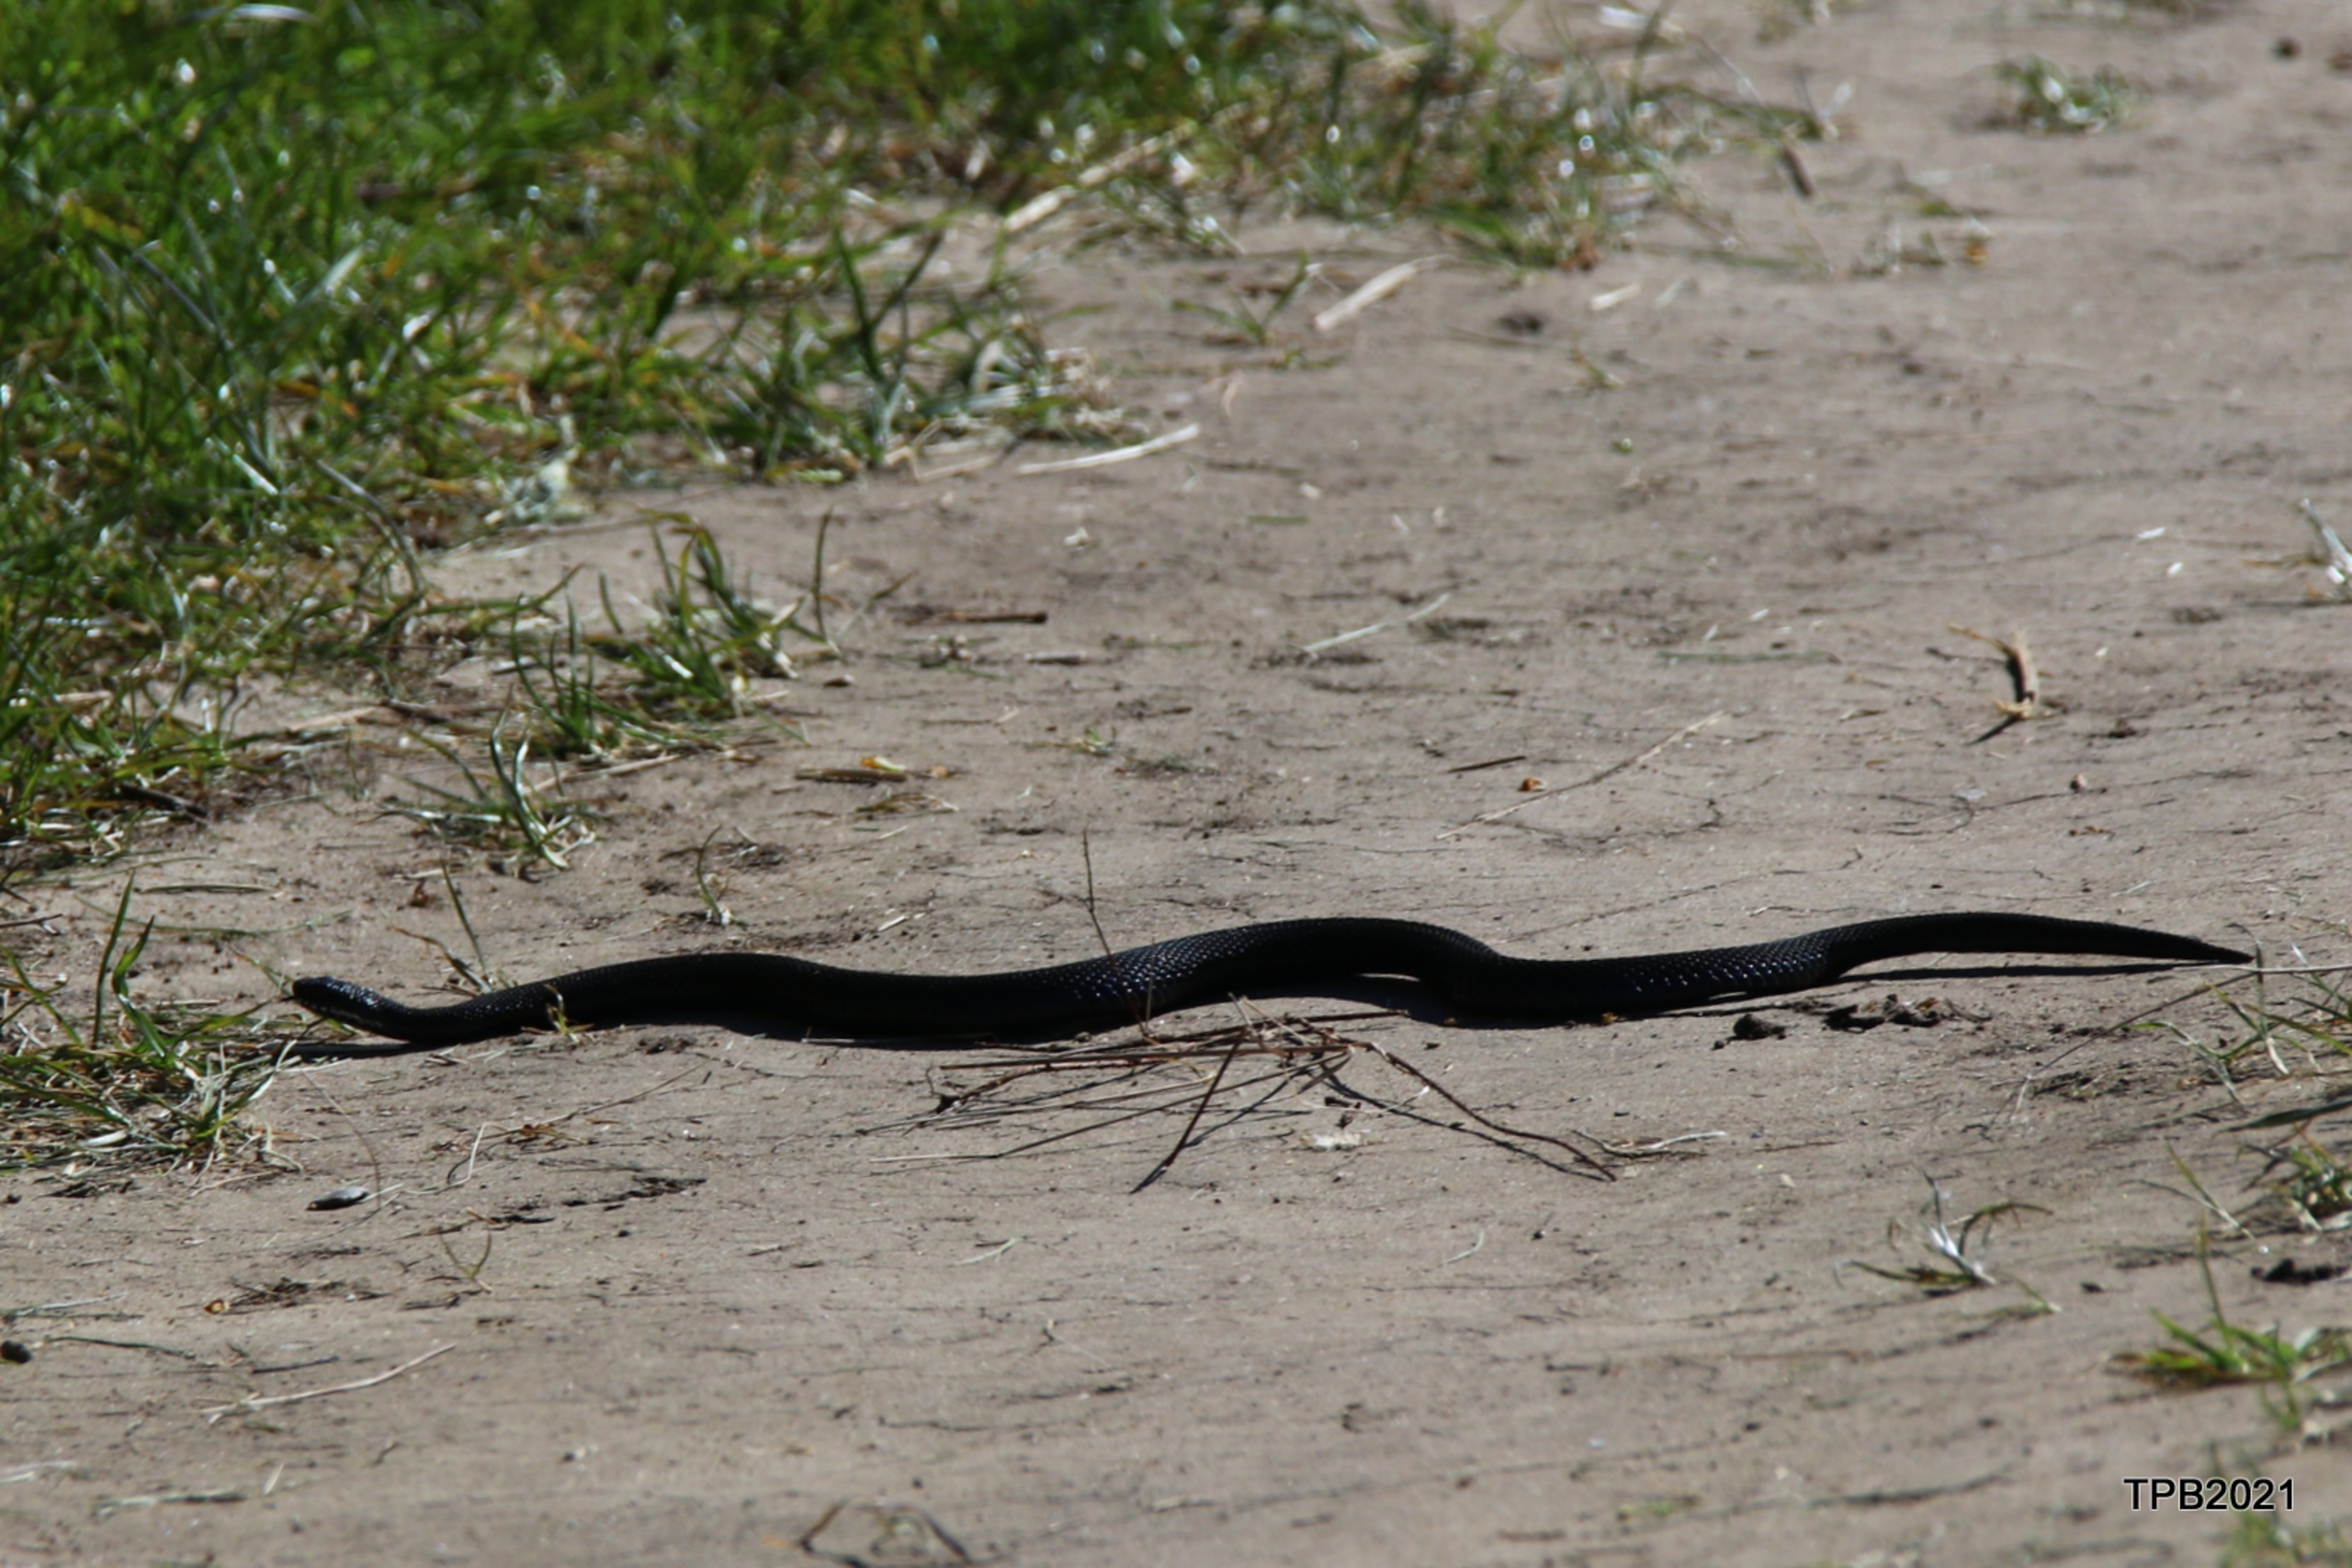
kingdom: Animalia
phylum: Chordata
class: Squamata
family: Viperidae
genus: Vipera
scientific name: Vipera berus
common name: Hugorm
